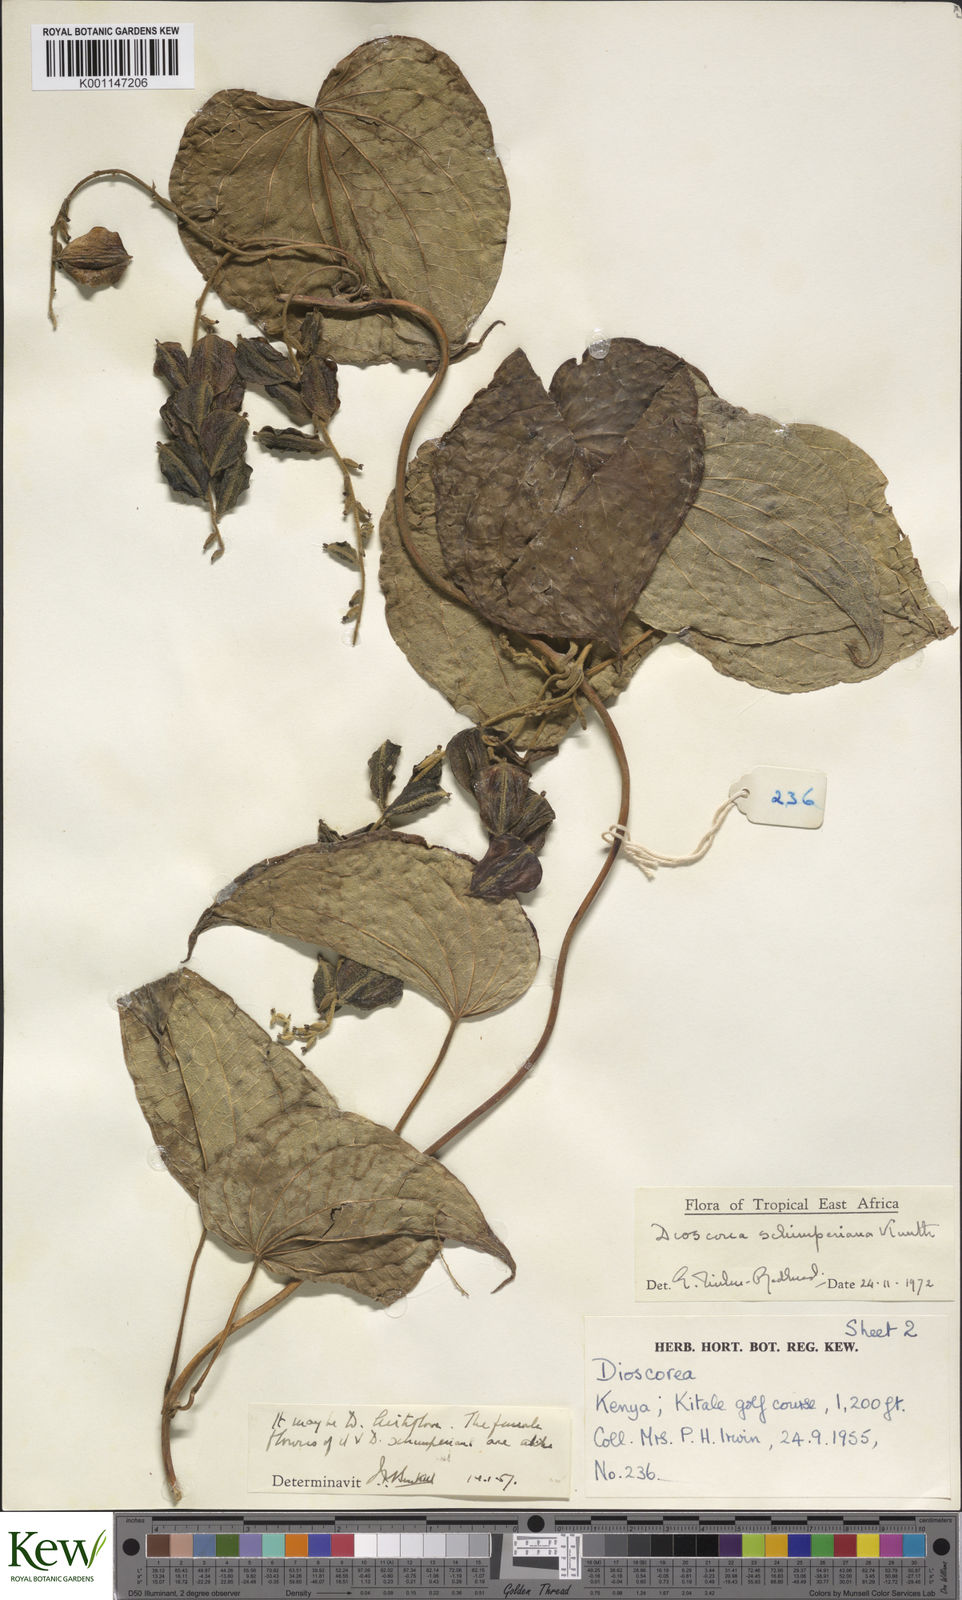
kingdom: Plantae
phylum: Tracheophyta
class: Liliopsida
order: Dioscoreales
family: Dioscoreaceae
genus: Dioscorea
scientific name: Dioscorea schimperiana
